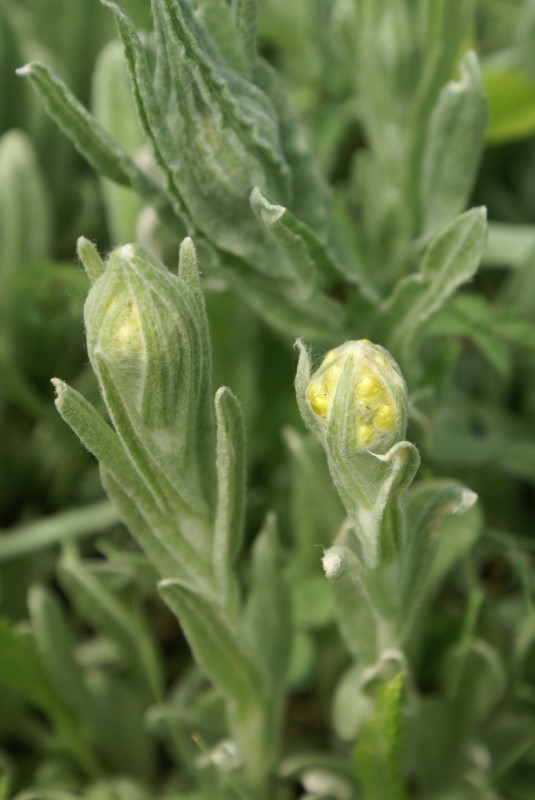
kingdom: Plantae
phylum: Tracheophyta
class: Magnoliopsida
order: Asterales
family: Asteraceae
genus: Helichrysum
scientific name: Helichrysum arenarium
